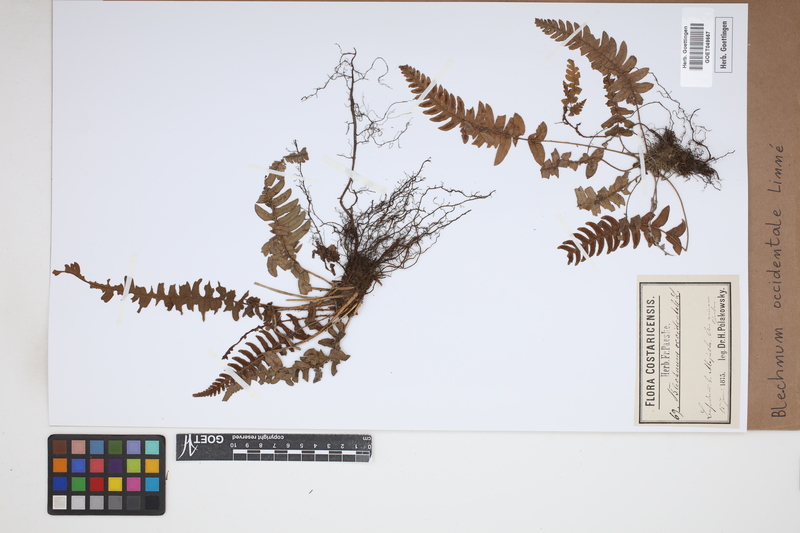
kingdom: Plantae
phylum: Tracheophyta
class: Polypodiopsida
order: Polypodiales
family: Blechnaceae
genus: Blechnum
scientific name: Blechnum occidentale
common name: Hammock fern
